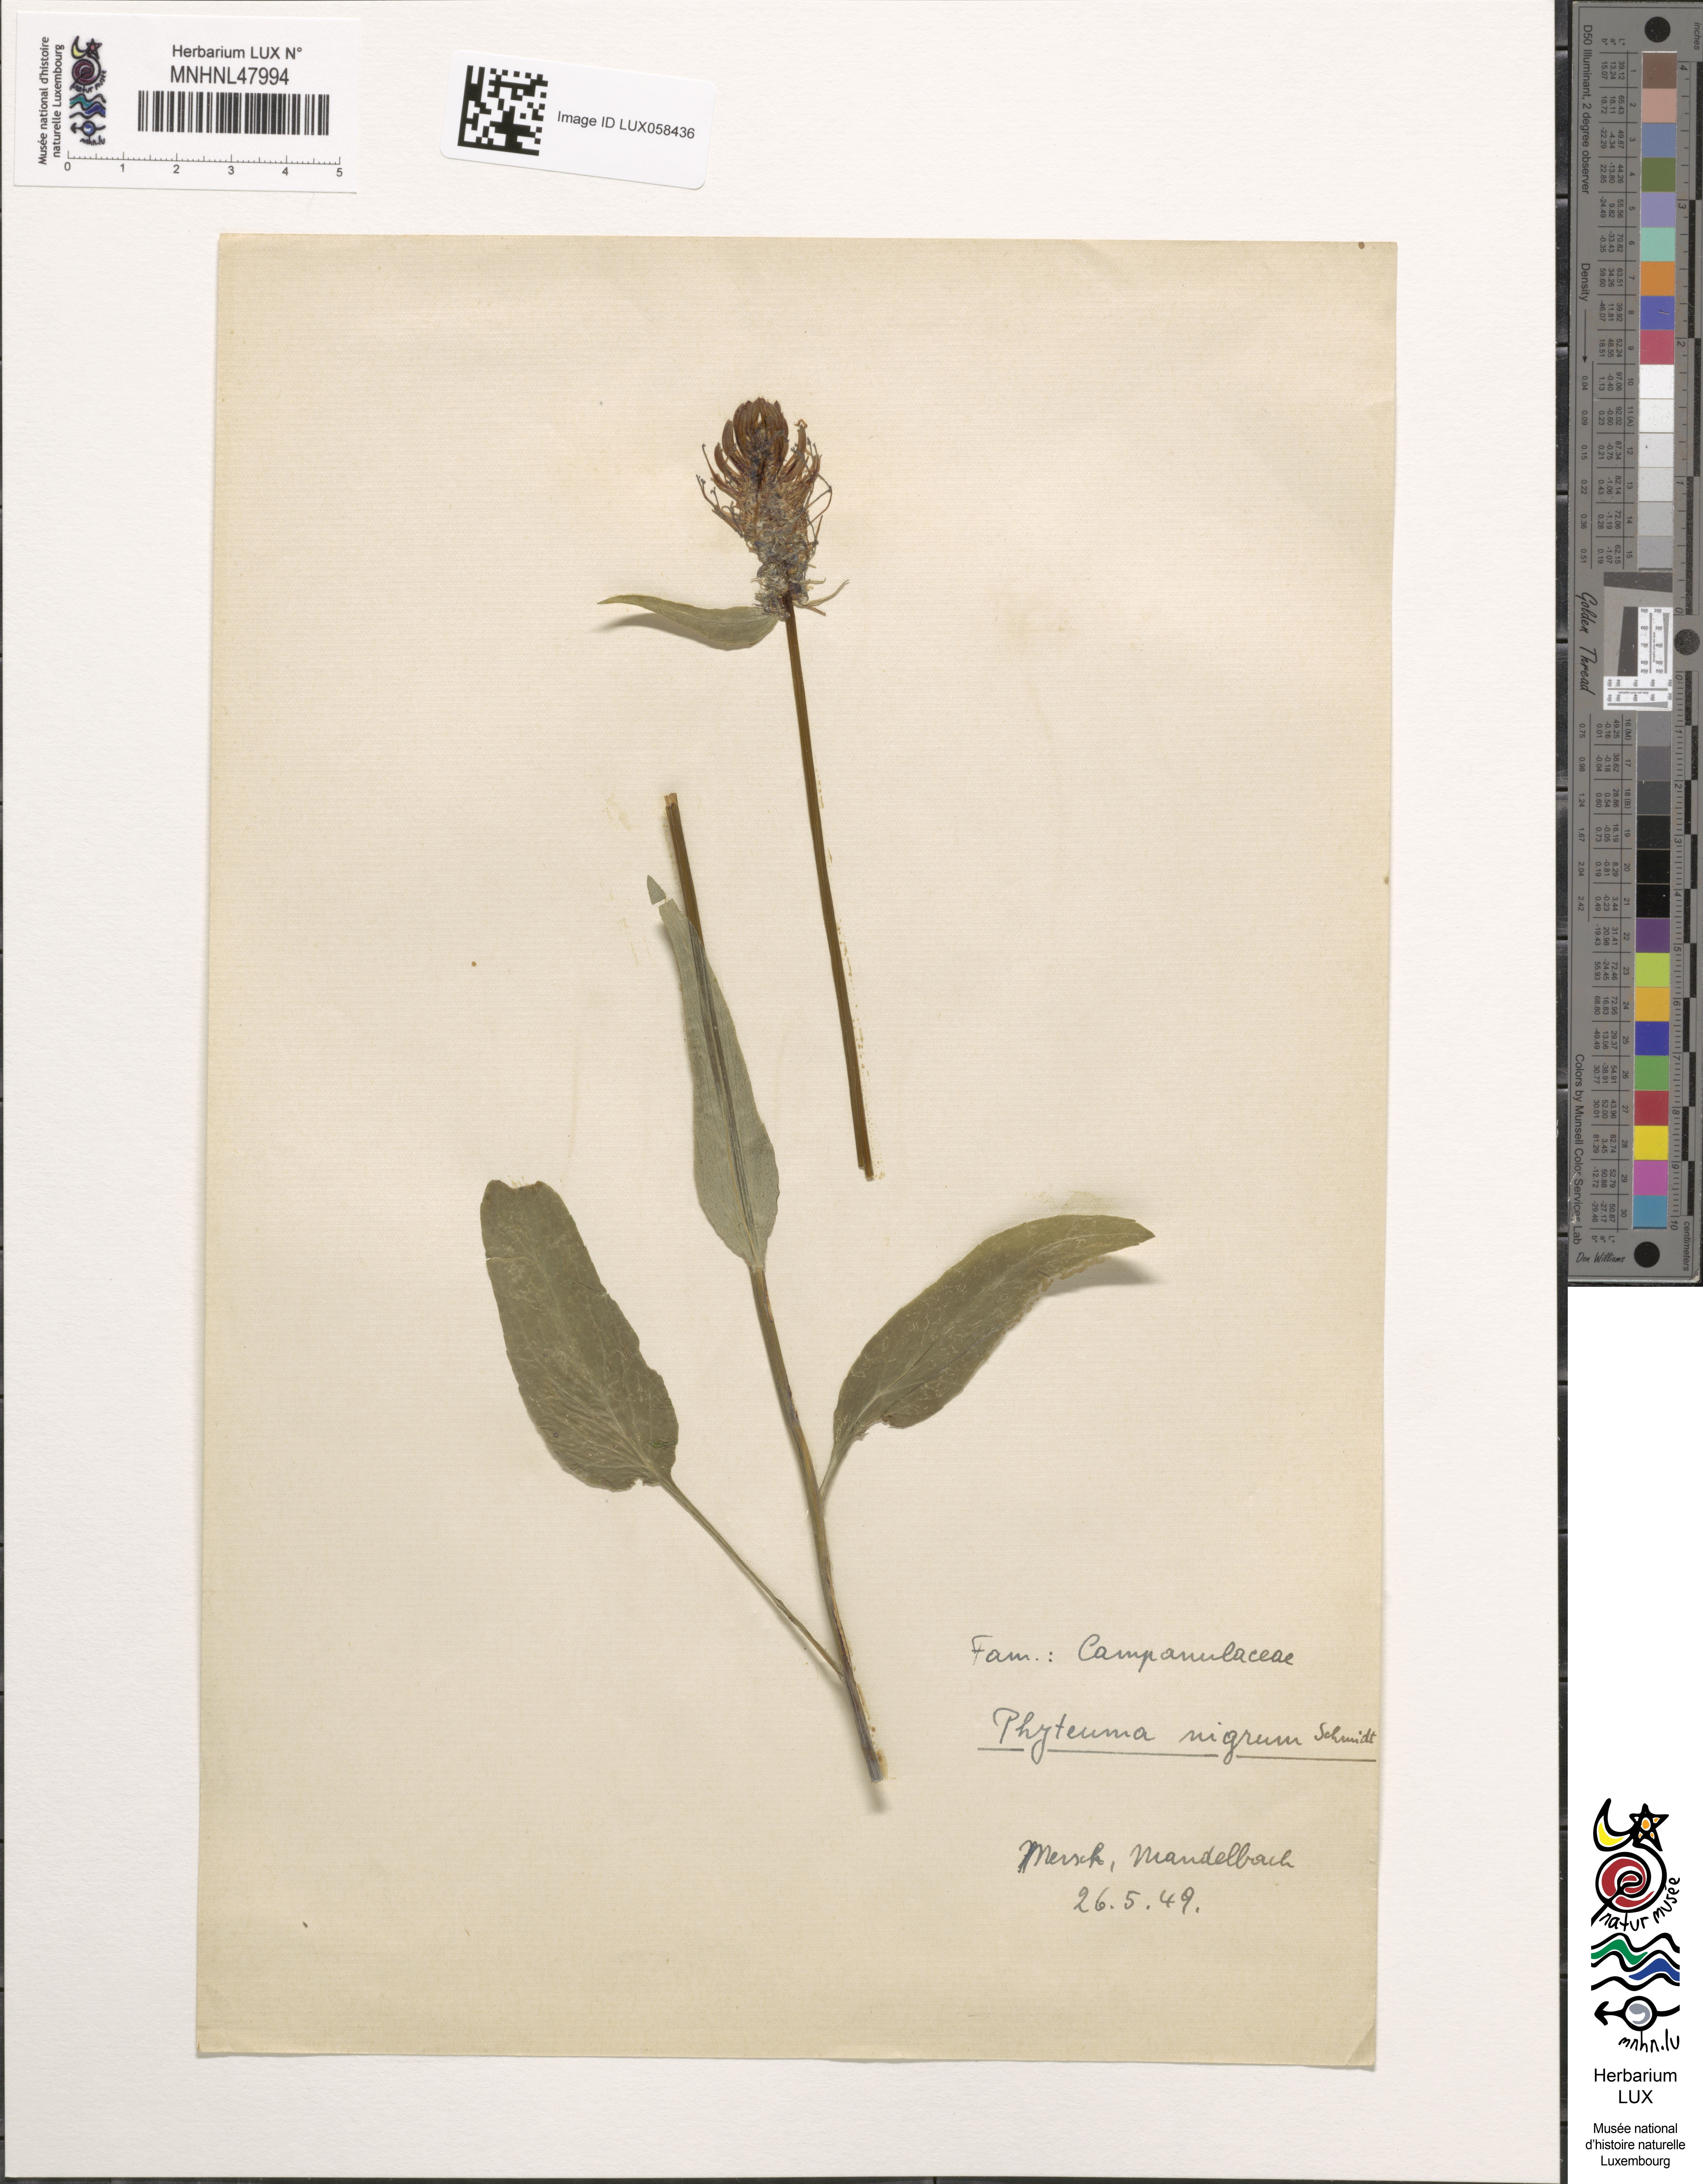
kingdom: Plantae
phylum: Tracheophyta
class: Magnoliopsida
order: Asterales
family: Campanulaceae
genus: Phyteuma
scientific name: Phyteuma nigrum
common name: Black rampion
